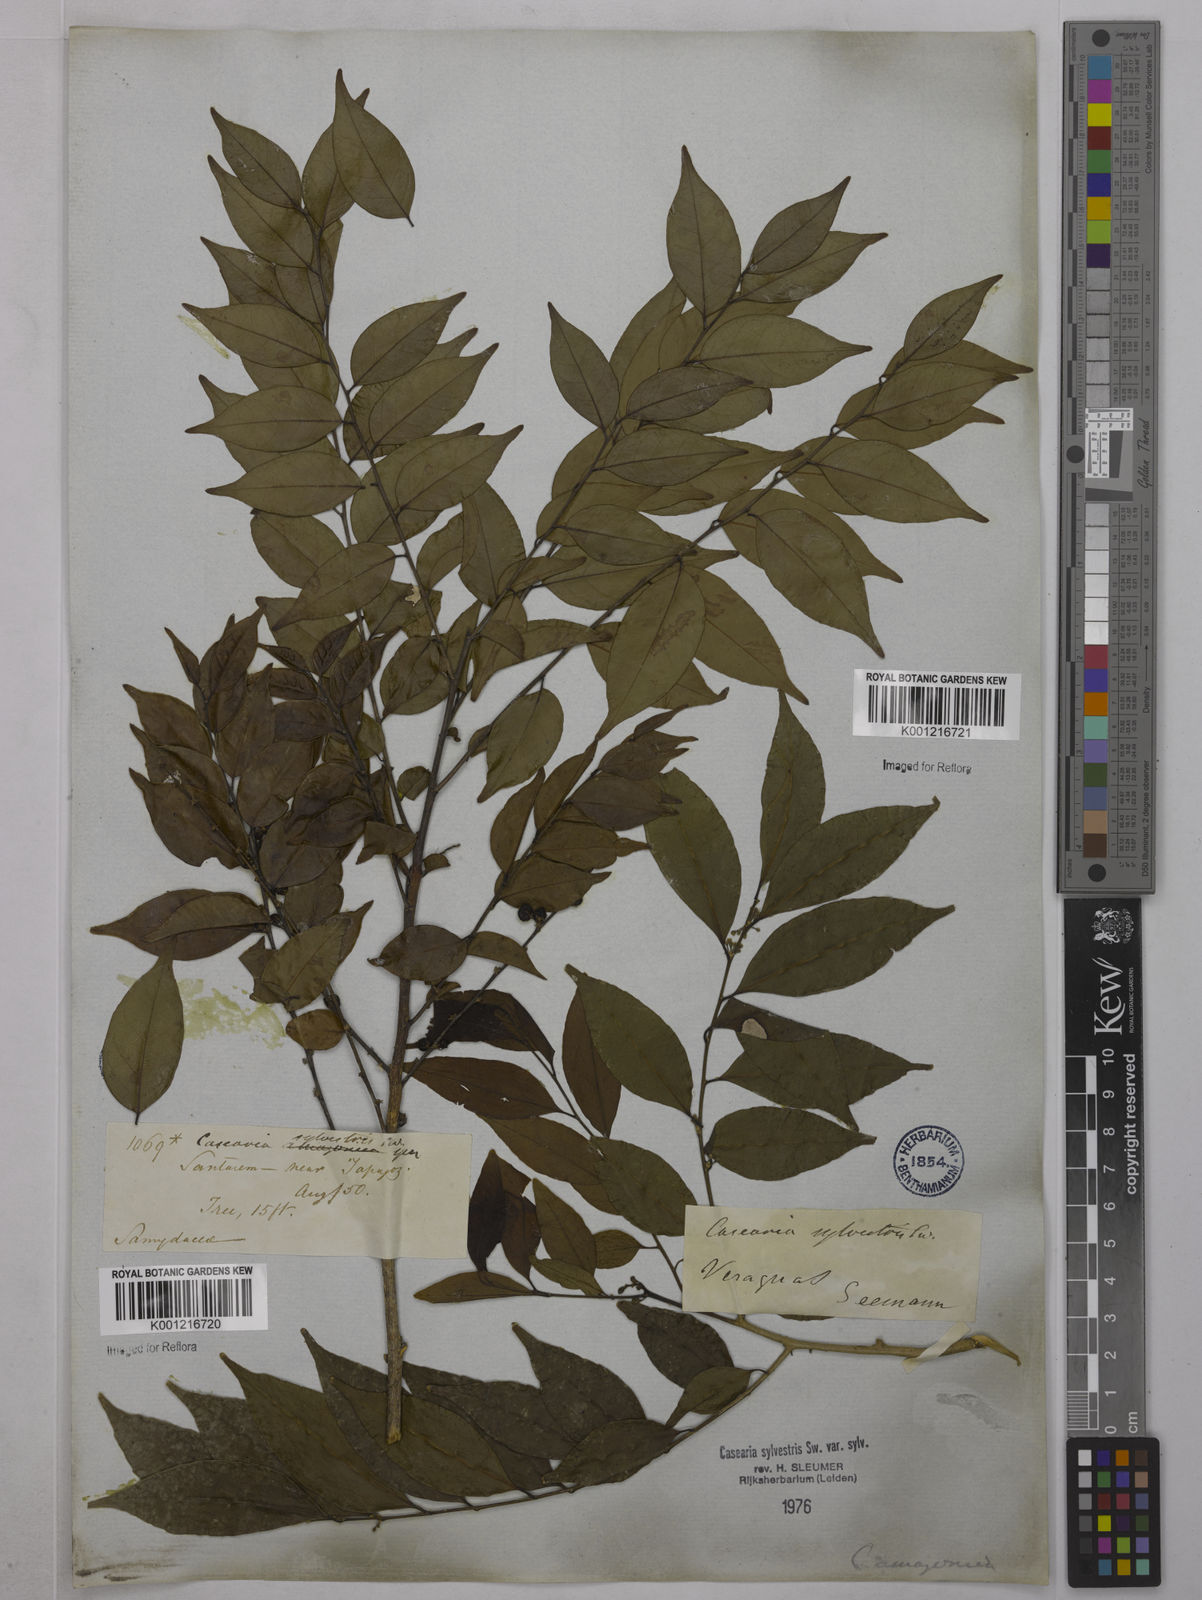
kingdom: Plantae
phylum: Tracheophyta
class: Magnoliopsida
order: Malpighiales
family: Salicaceae
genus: Casearia
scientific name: Casearia sylvestris
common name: Wild sage
